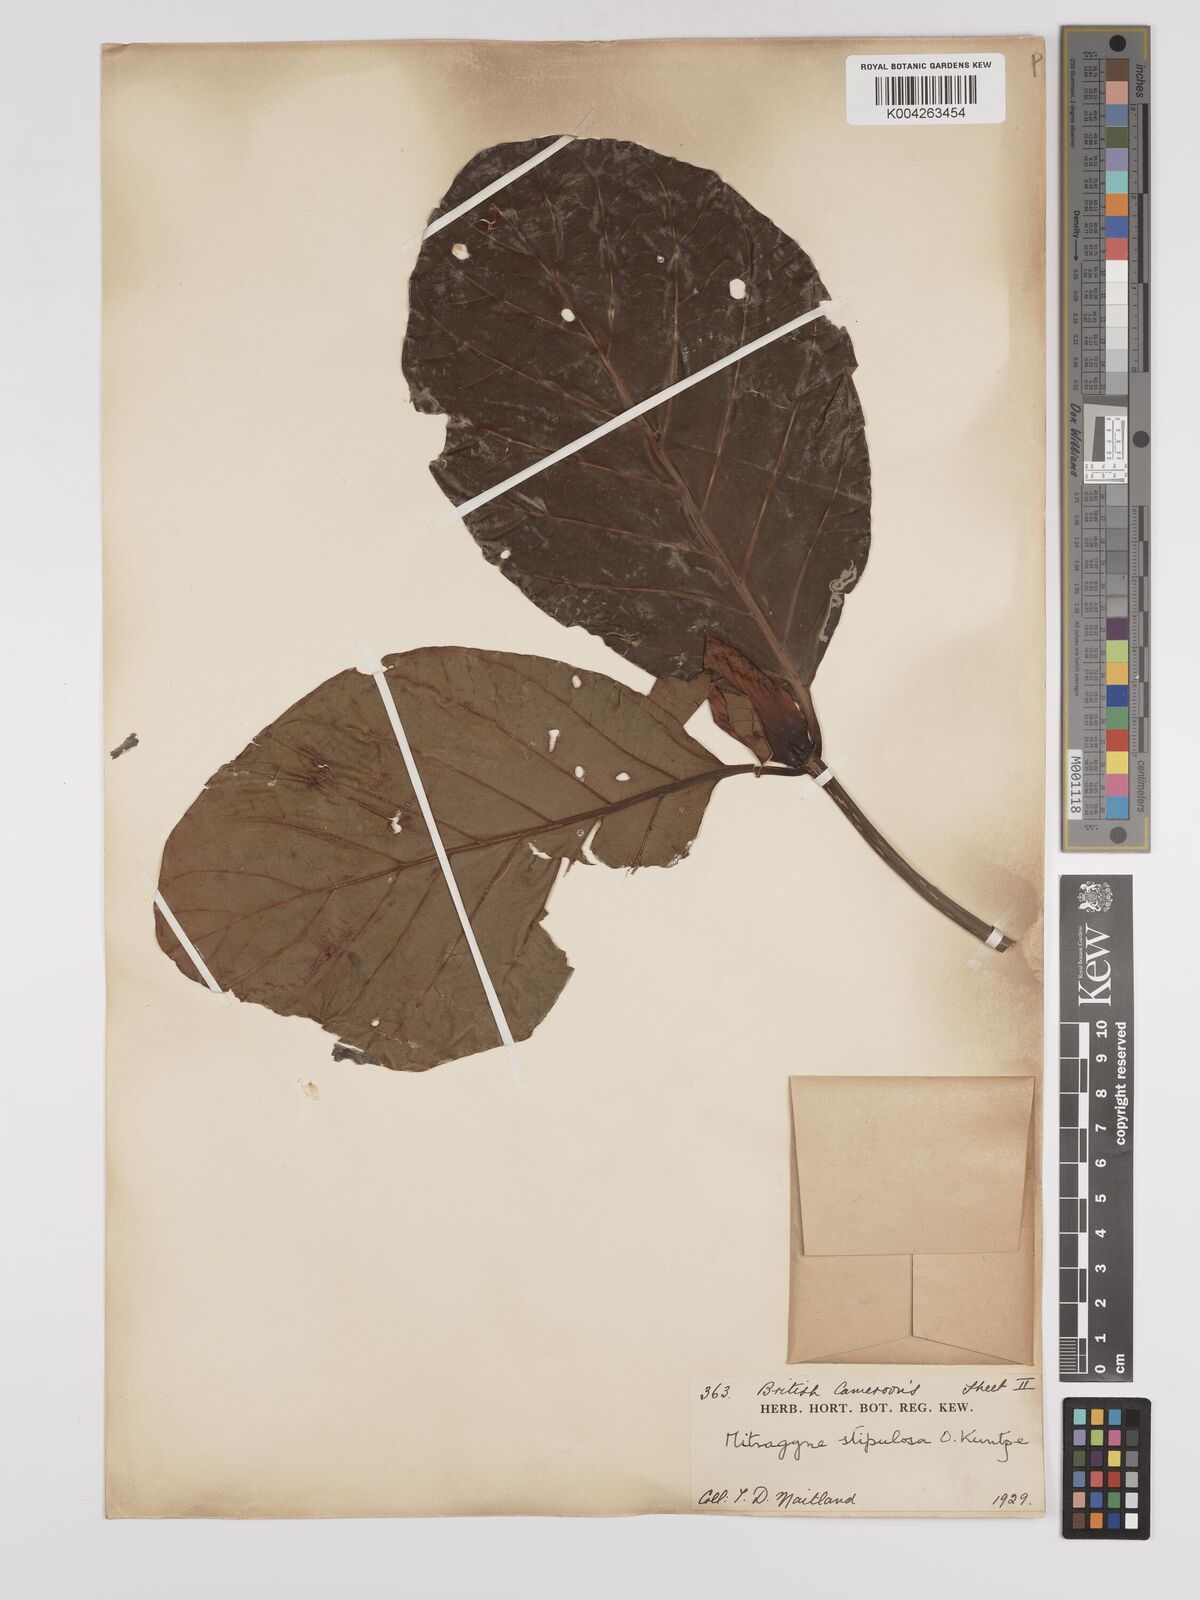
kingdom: Plantae
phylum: Tracheophyta
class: Magnoliopsida
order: Gentianales
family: Rubiaceae
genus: Mitragyna
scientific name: Mitragyna stipulosa
